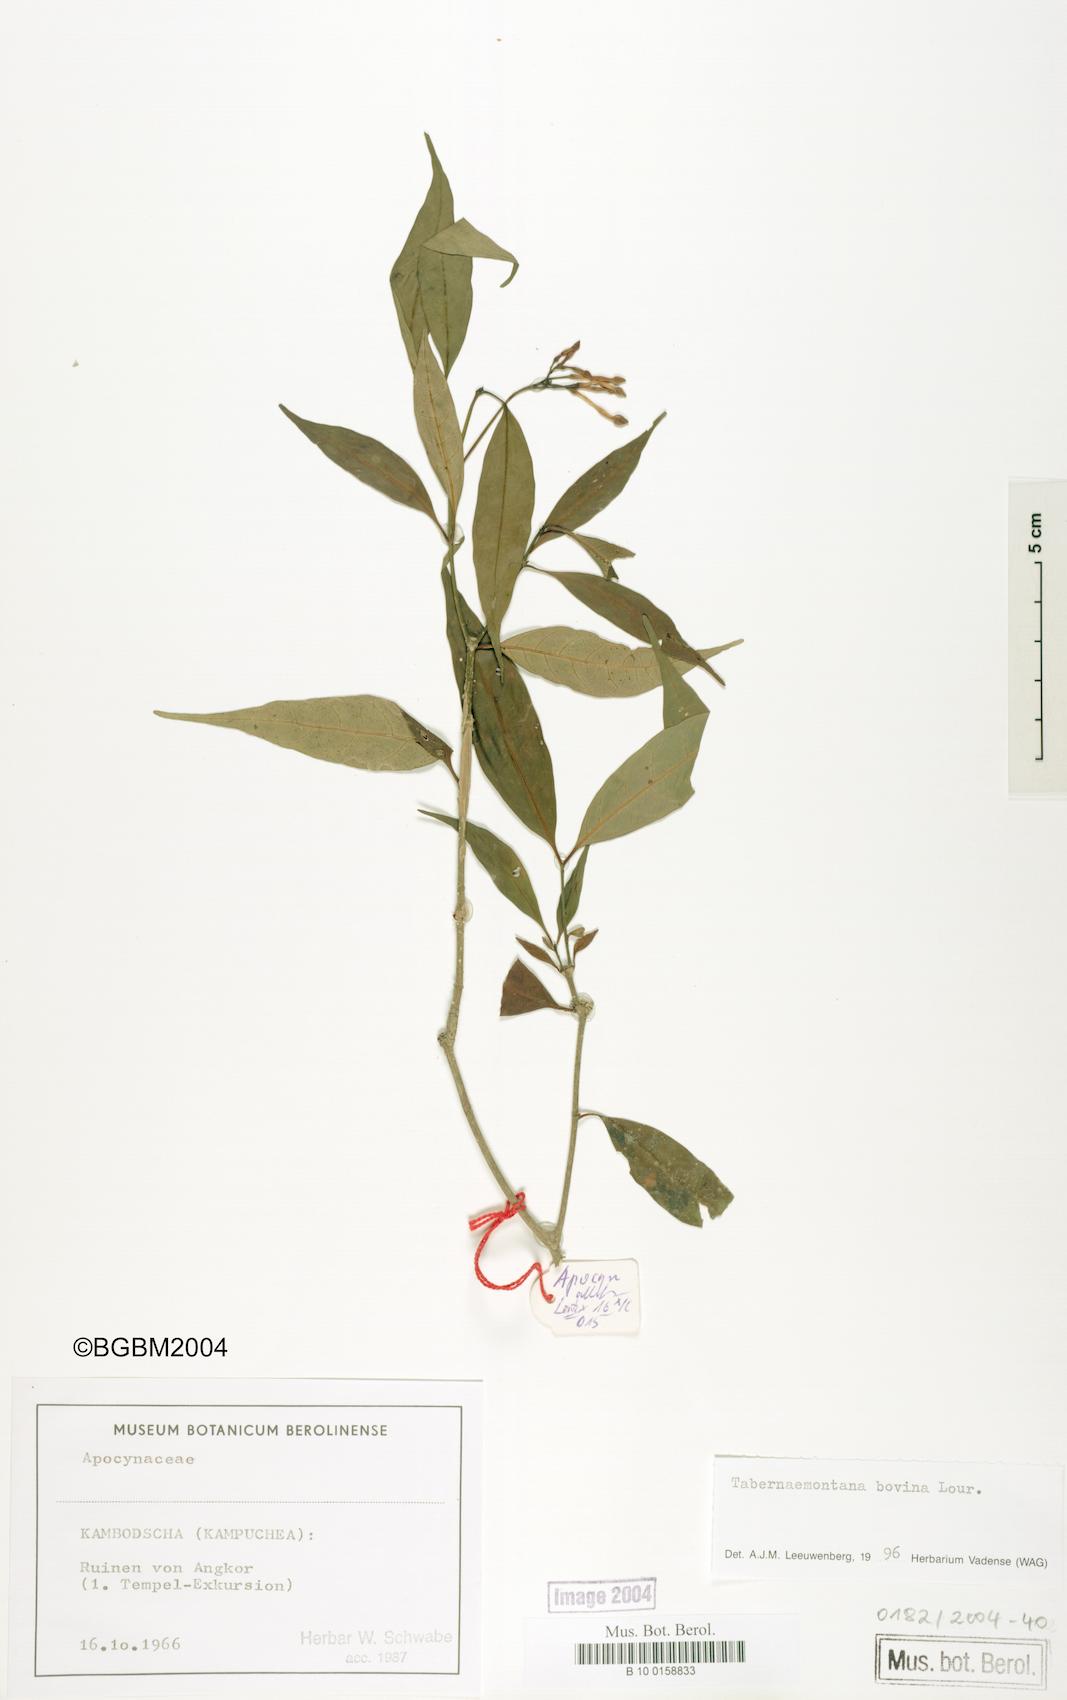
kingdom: Plantae
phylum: Tracheophyta
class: Magnoliopsida
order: Gentianales
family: Apocynaceae
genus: Tabernaemontana
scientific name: Tabernaemontana bovina
